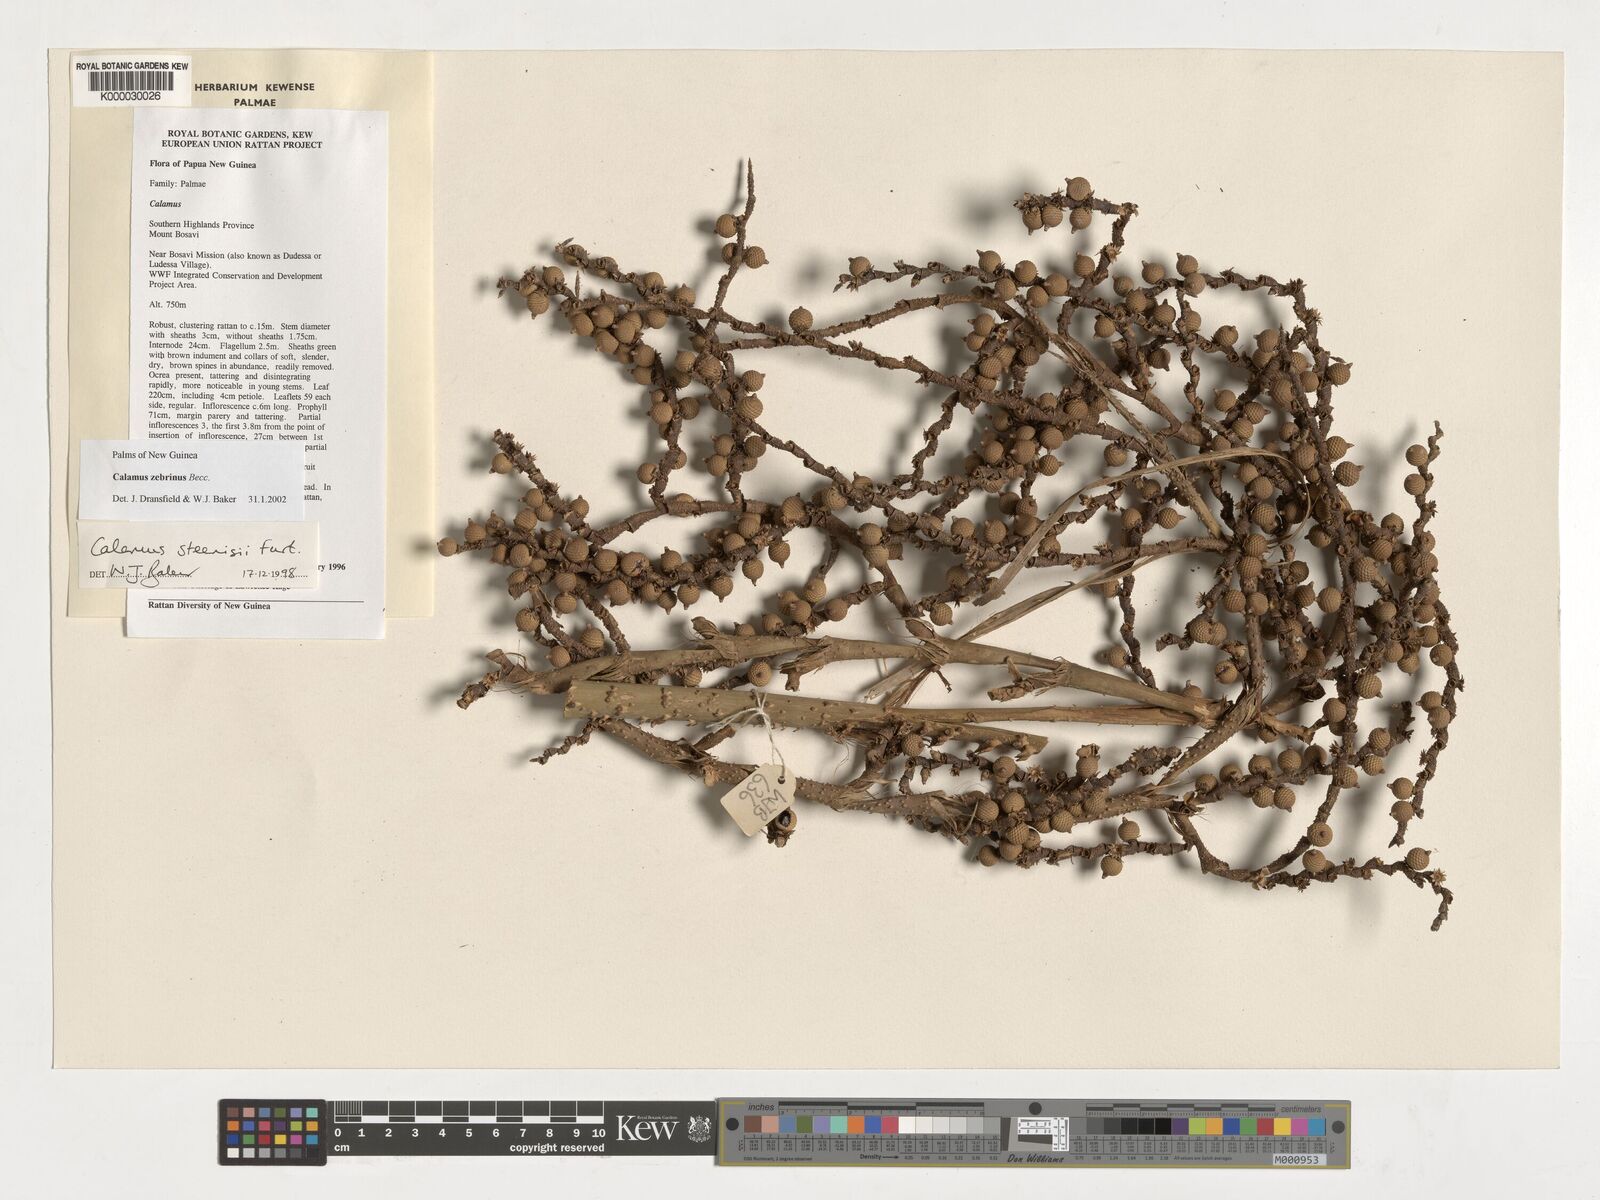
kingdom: Plantae
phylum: Tracheophyta
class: Liliopsida
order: Arecales
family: Arecaceae
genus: Calamus
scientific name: Calamus zebrinus
